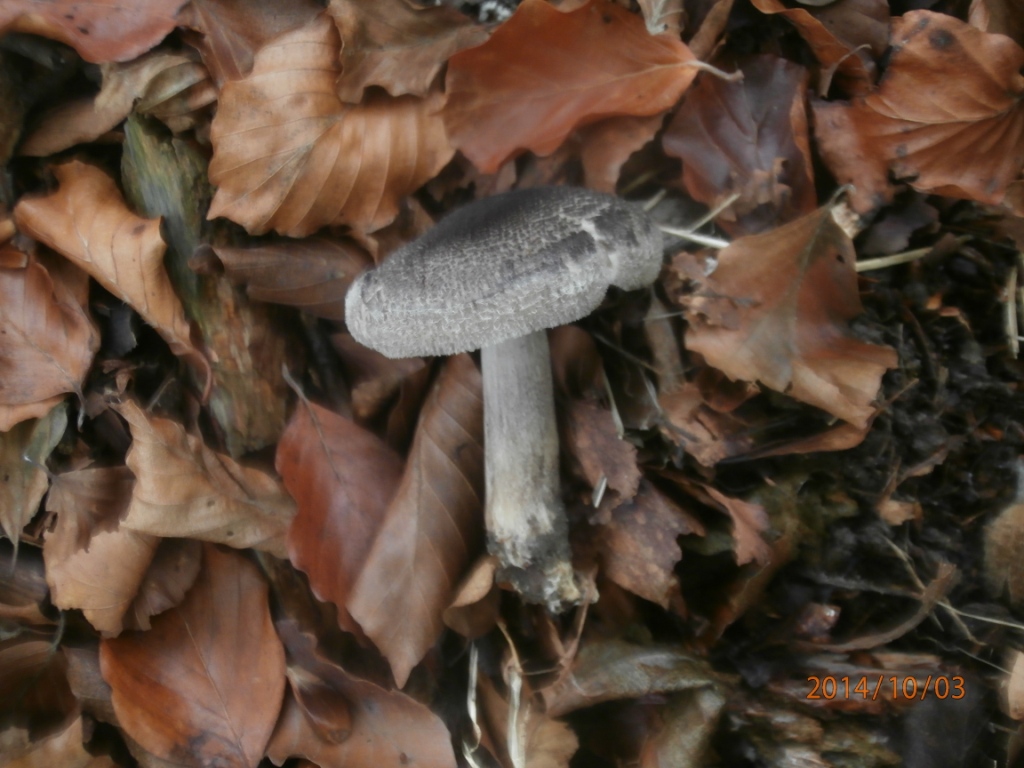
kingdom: Fungi
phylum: Basidiomycota
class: Agaricomycetes
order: Agaricales
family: Tricholomataceae
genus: Tricholoma
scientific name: Tricholoma atrosquamosum
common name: sortskællet ridderhat
